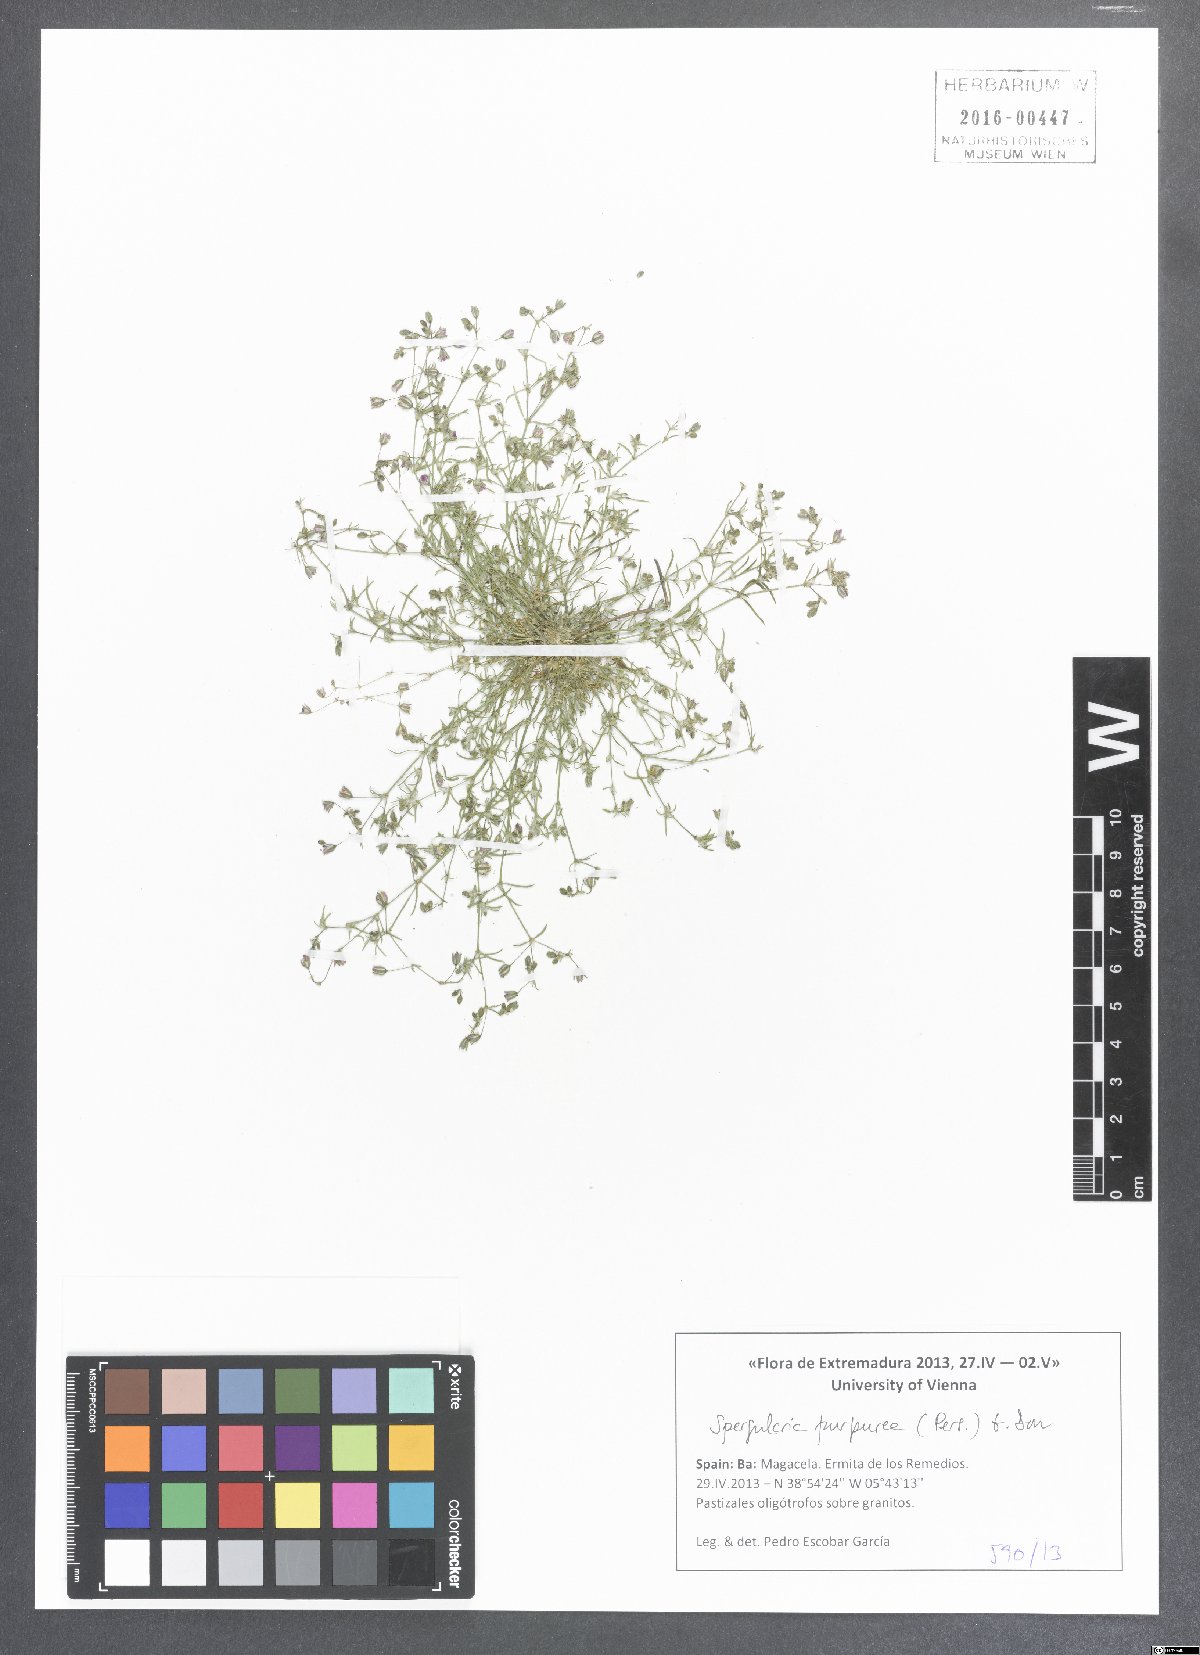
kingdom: Plantae
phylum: Tracheophyta
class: Magnoliopsida
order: Caryophyllales
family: Caryophyllaceae
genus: Spergularia
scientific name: Spergularia purpurea
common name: Purple sandspurry
